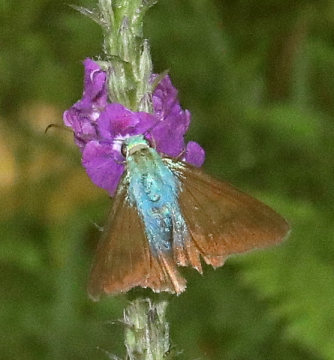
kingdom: Animalia
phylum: Arthropoda
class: Insecta
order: Lepidoptera
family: Hesperiidae
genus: Astraptes
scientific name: Astraptes alector
